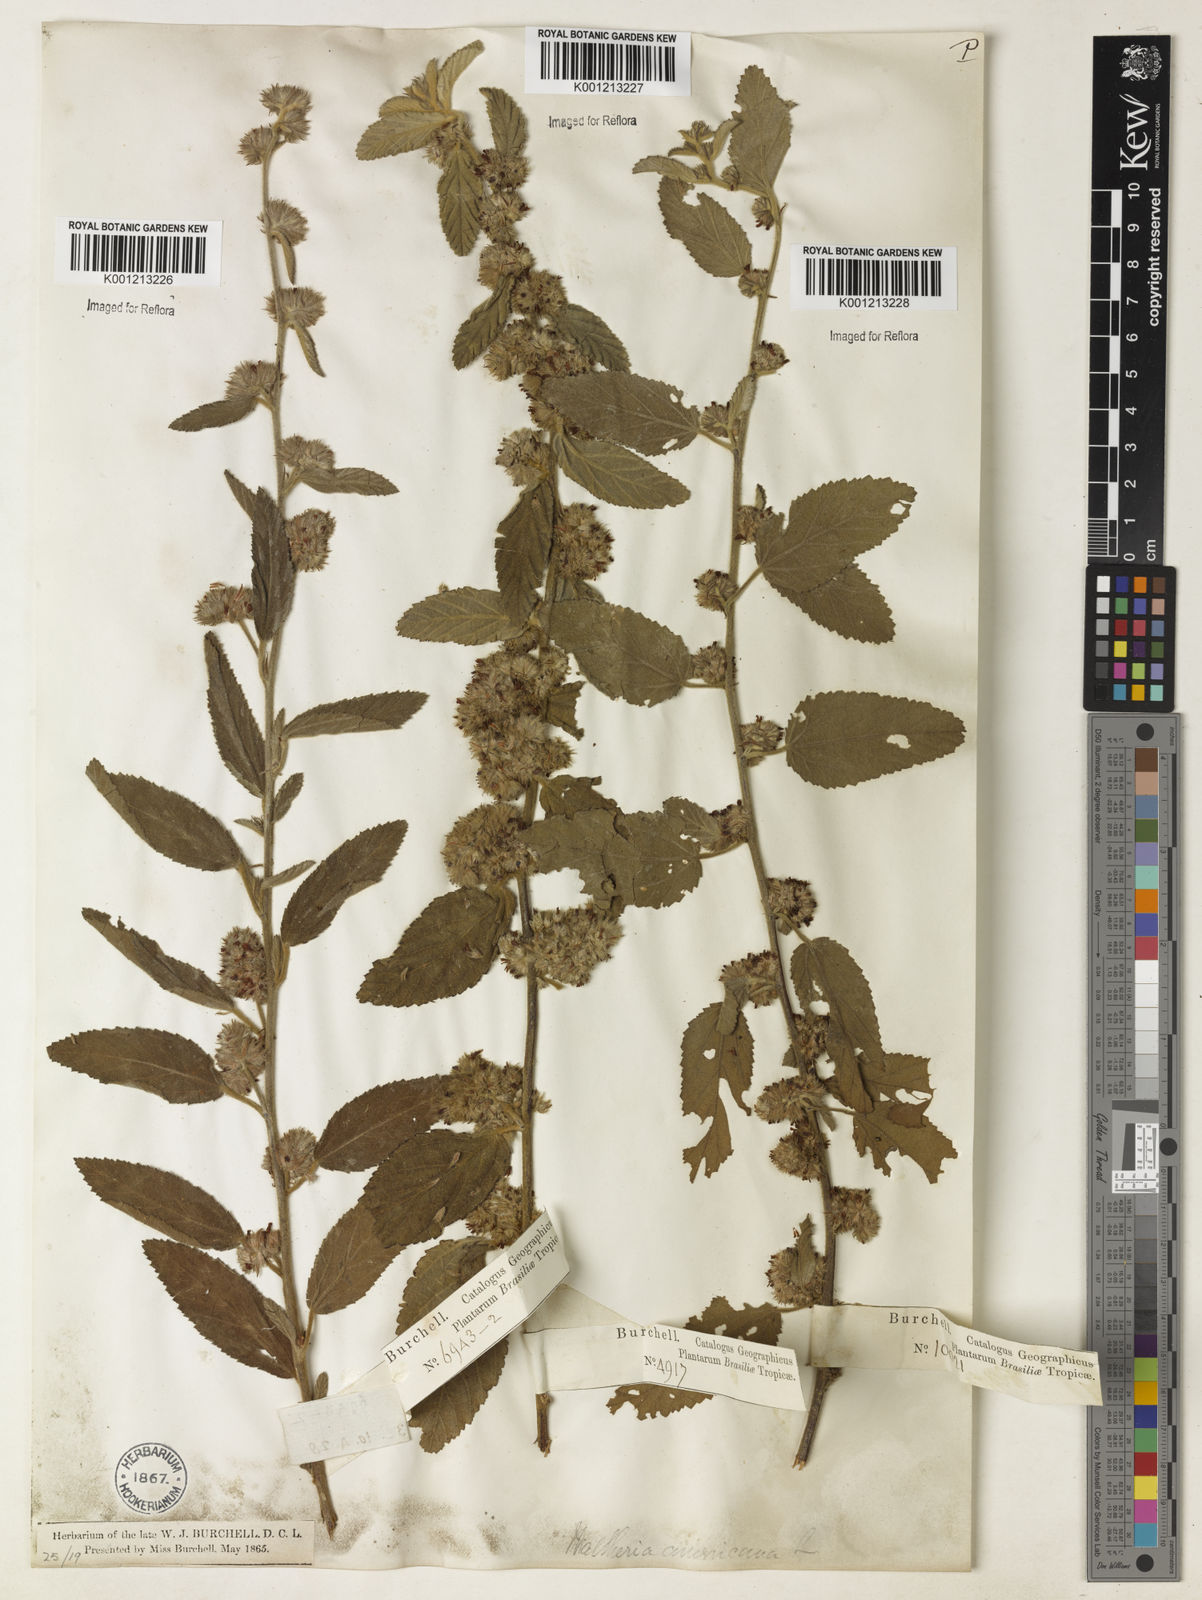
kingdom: Plantae
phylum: Tracheophyta
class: Magnoliopsida
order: Malvales
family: Malvaceae
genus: Waltheria
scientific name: Waltheria indica
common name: Leather-coat
